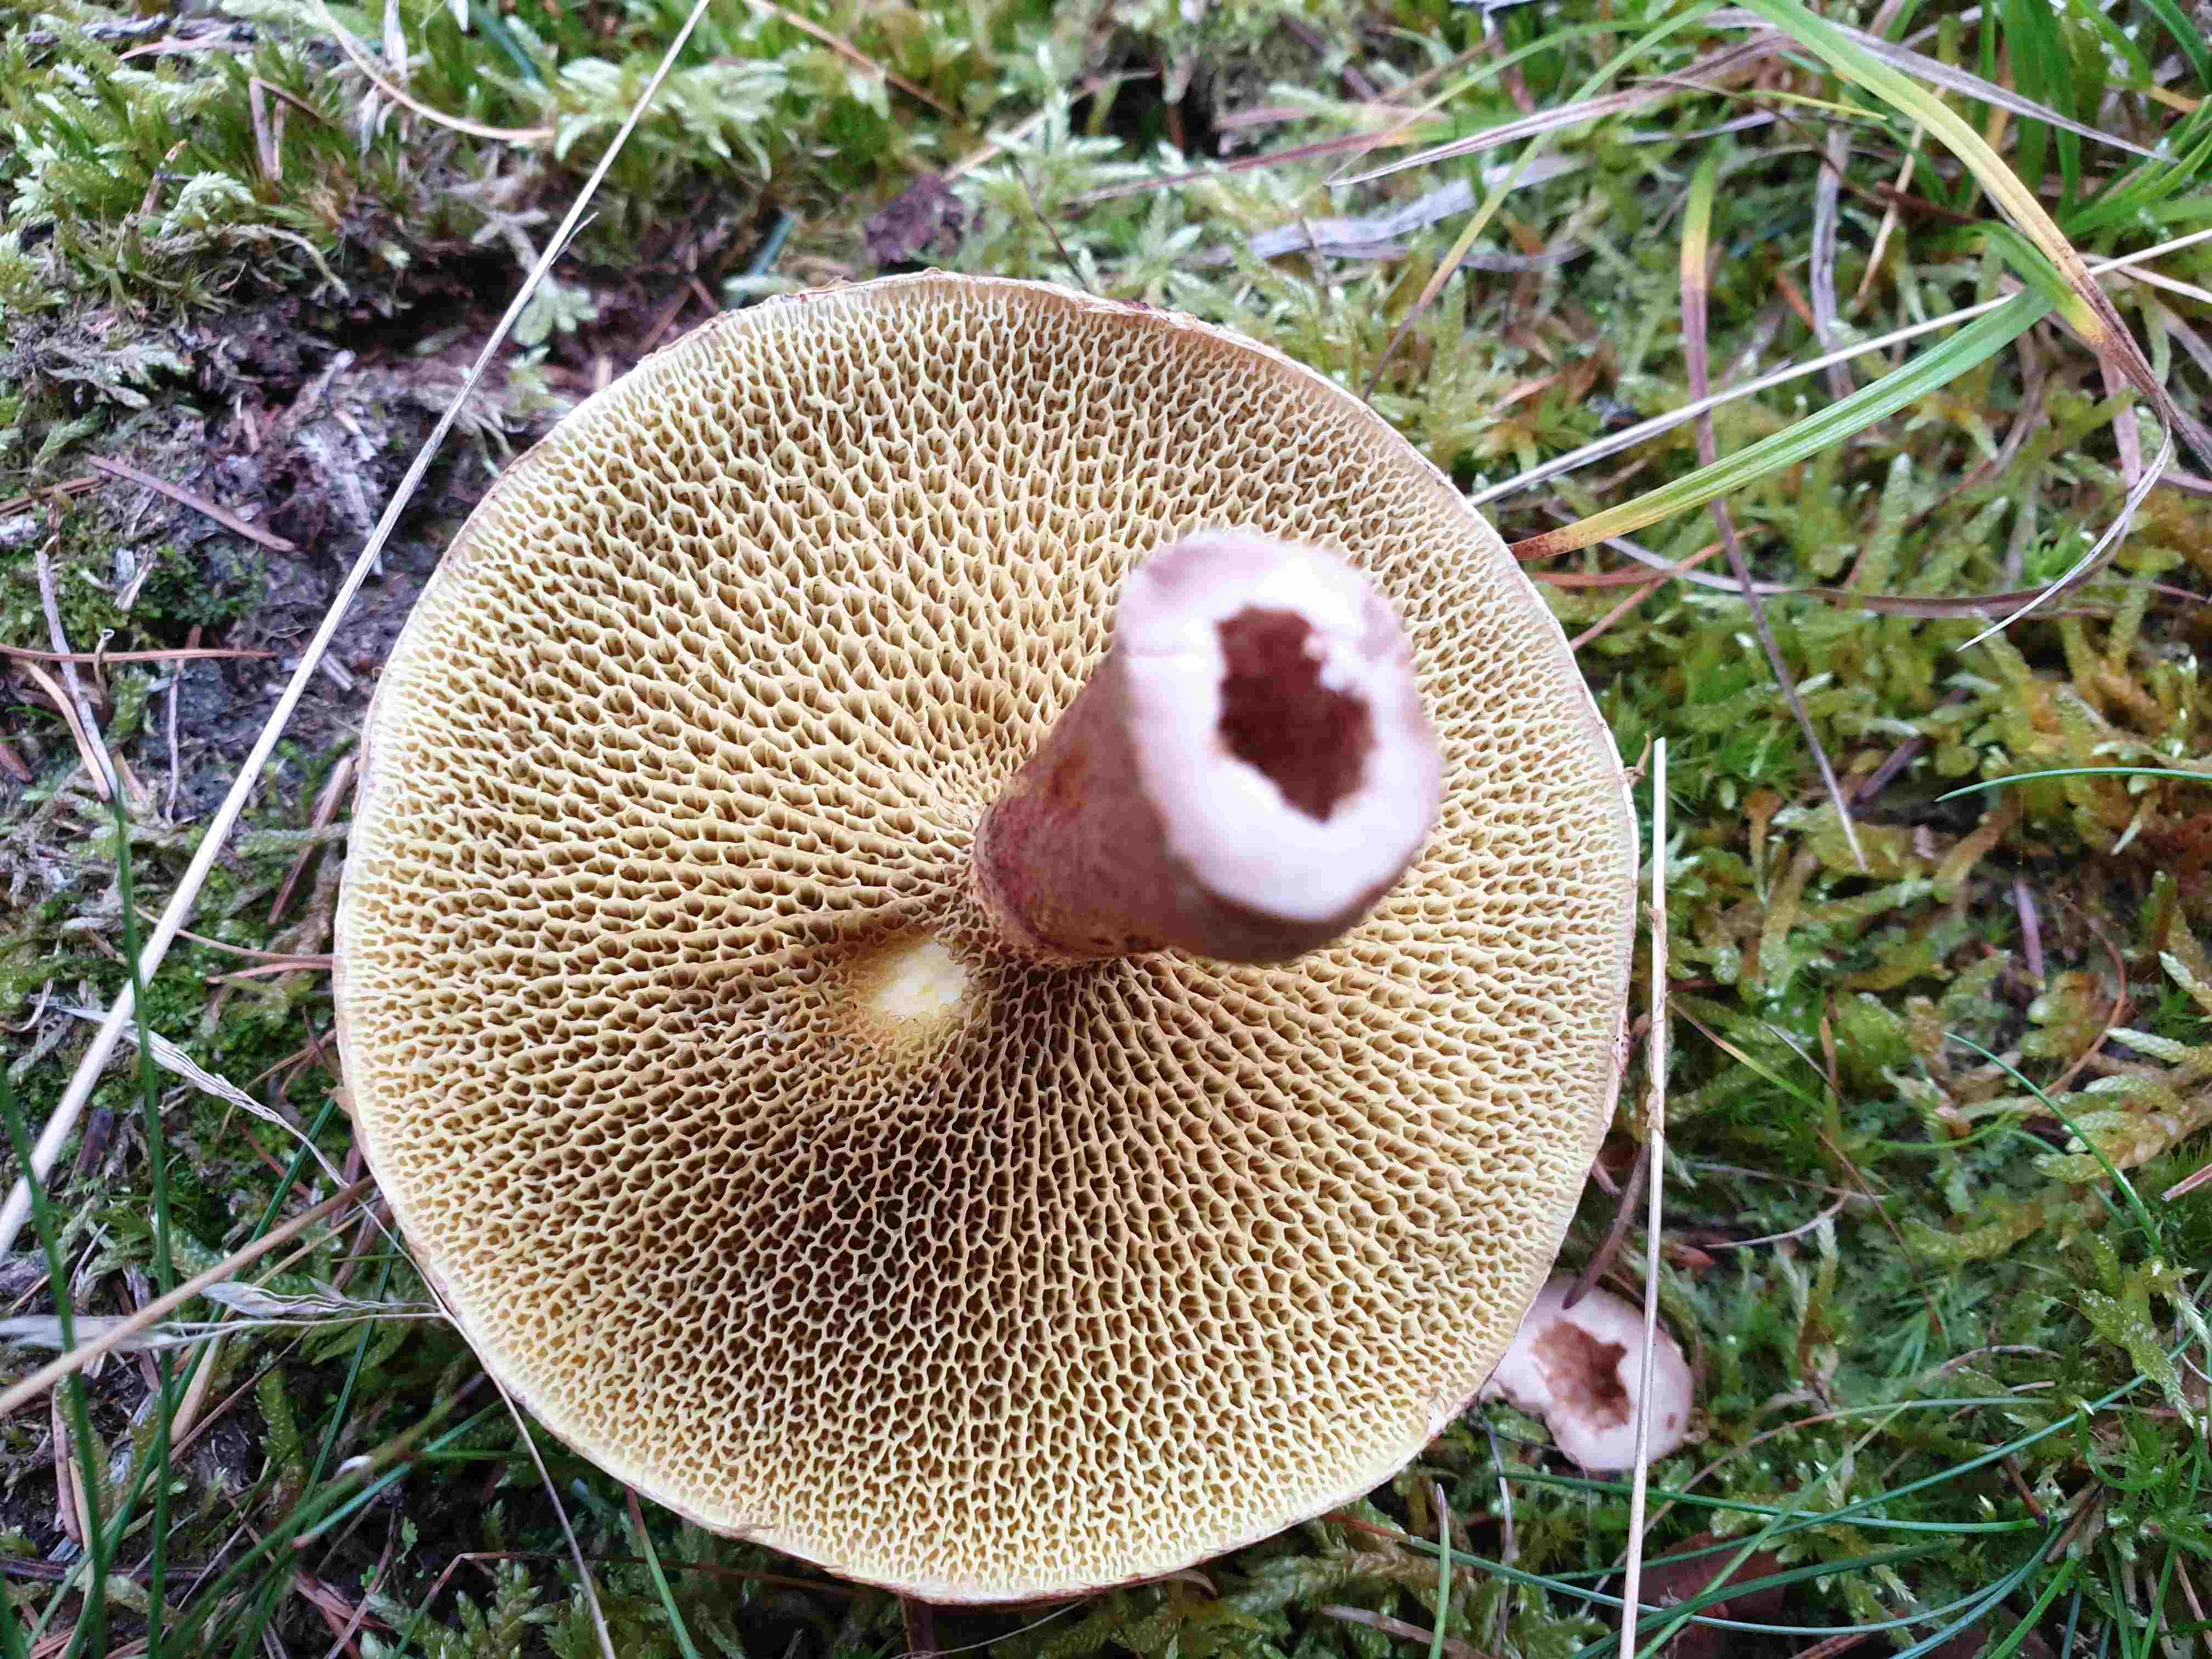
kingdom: Fungi
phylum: Basidiomycota
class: Agaricomycetes
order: Boletales
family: Suillaceae
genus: Suillus
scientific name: Suillus cavipes
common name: hulstokket slimrørhat
